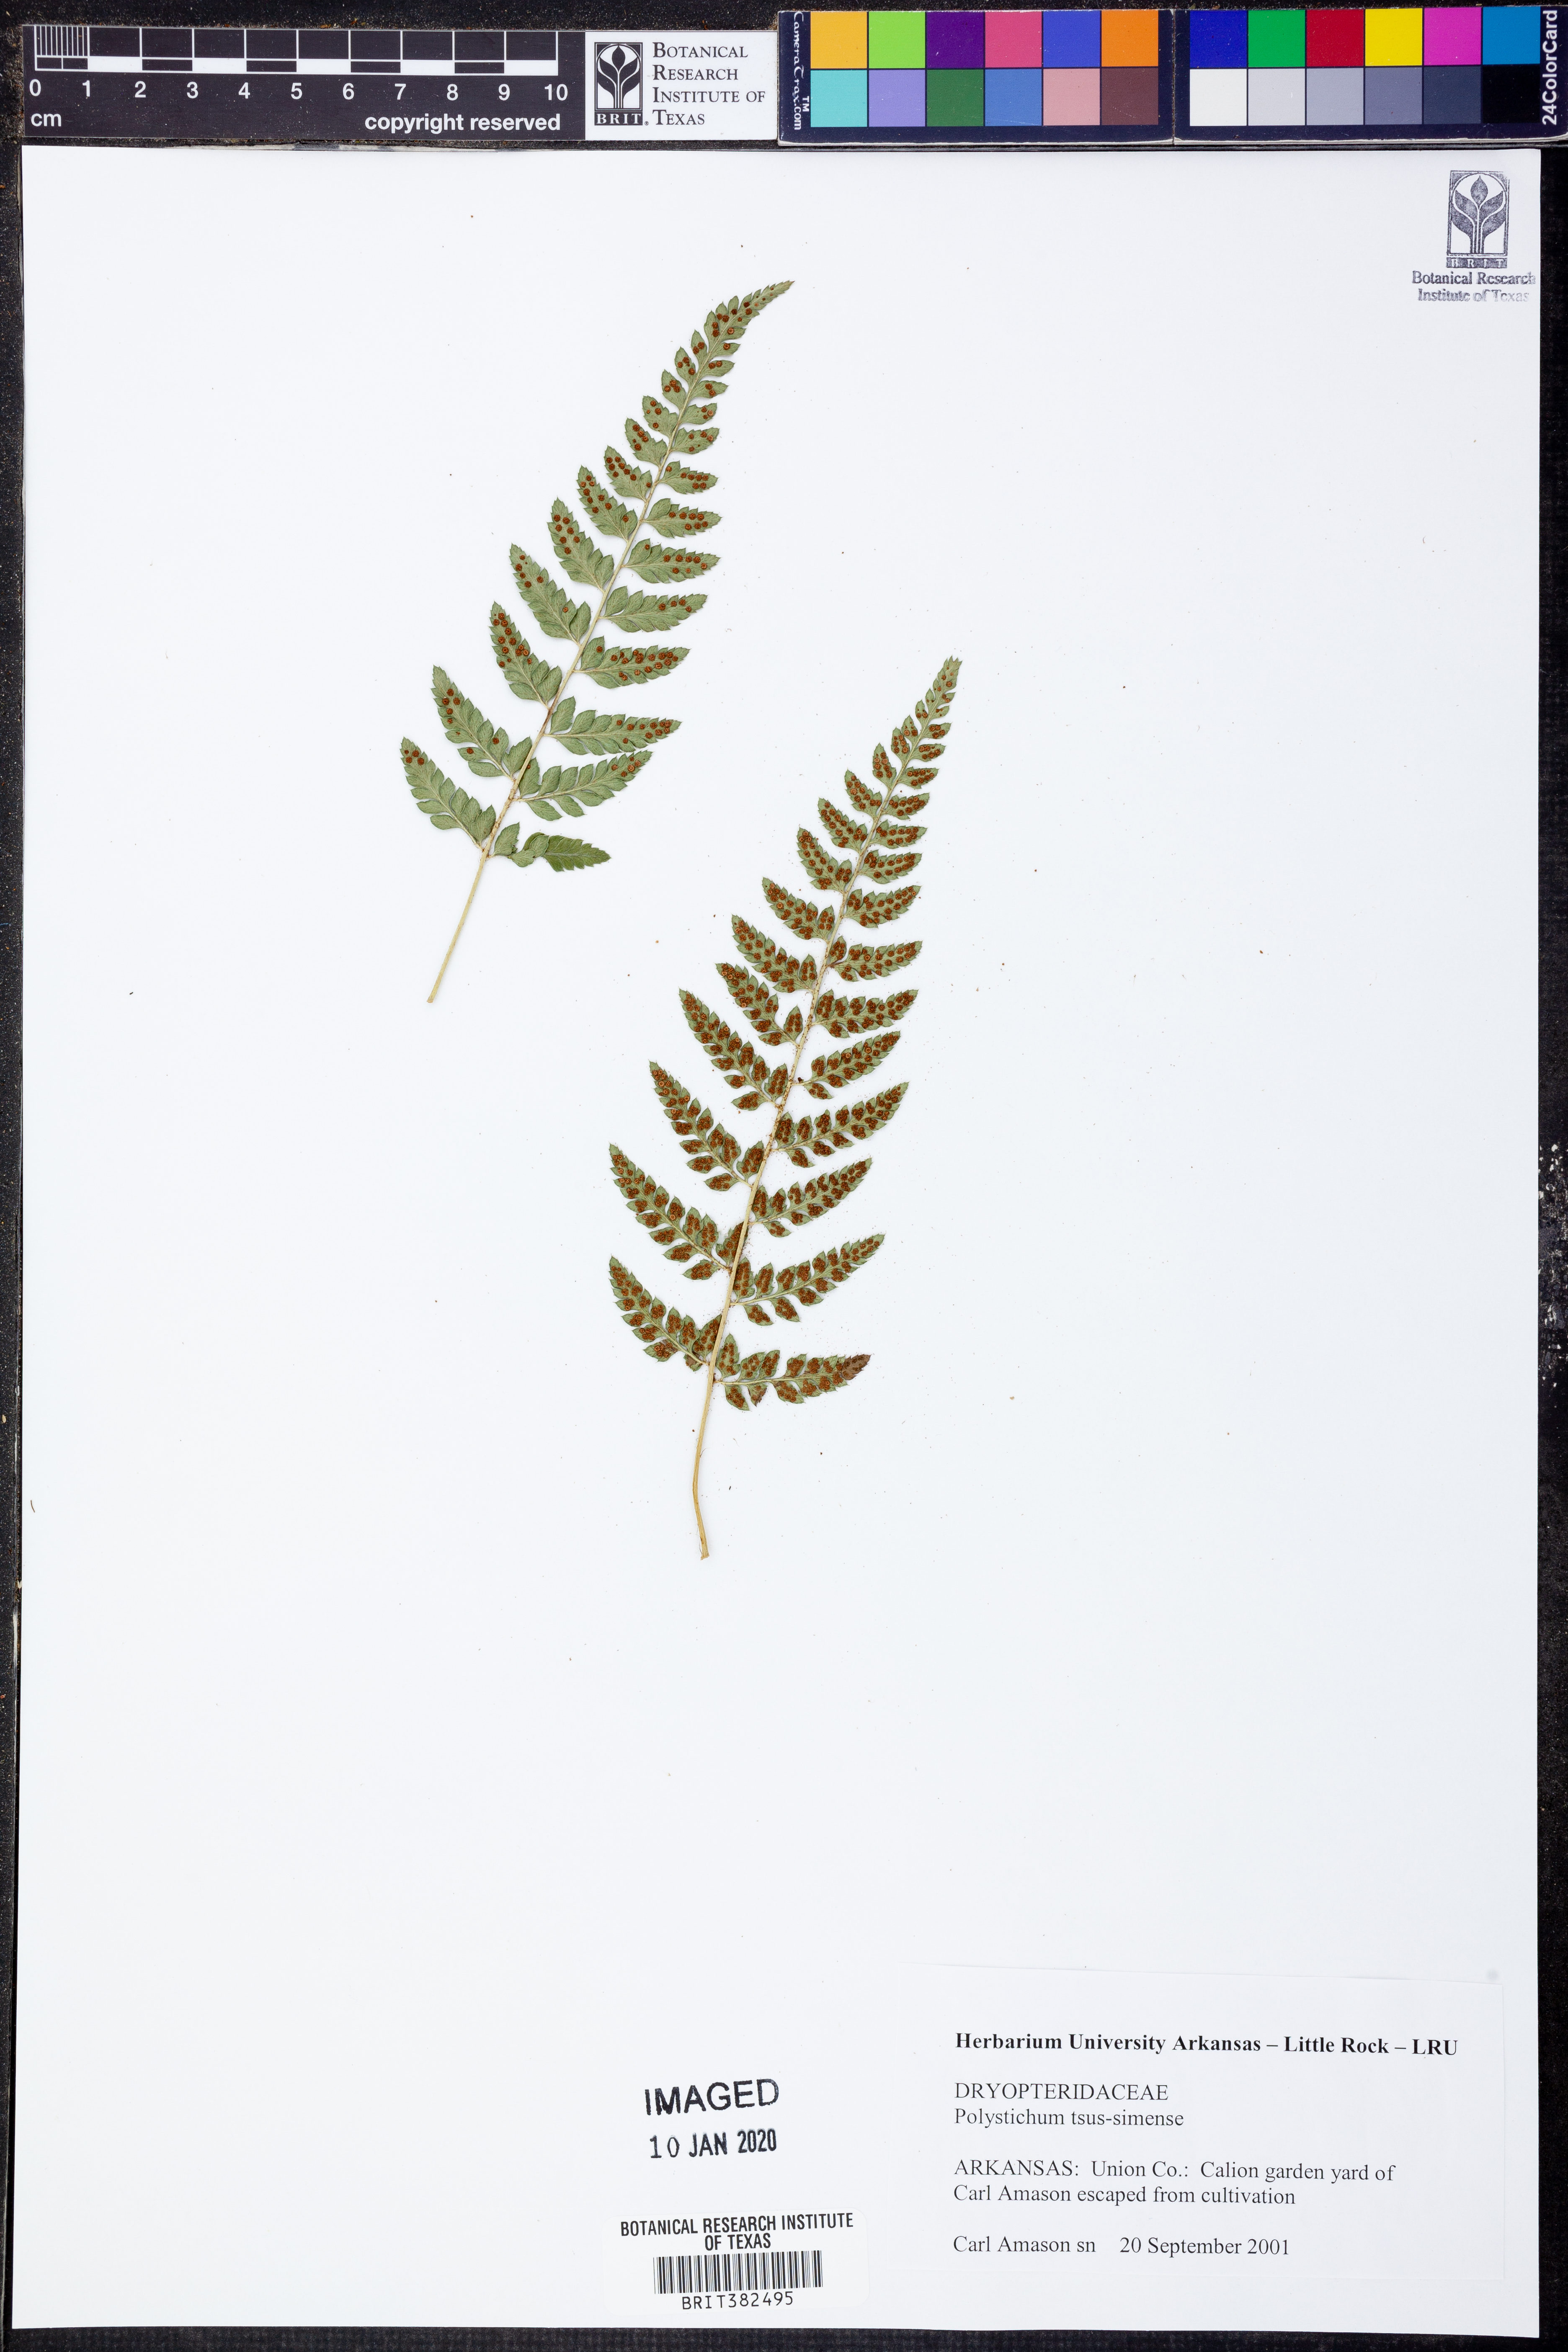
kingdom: Plantae
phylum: Tracheophyta
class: Polypodiopsida
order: Polypodiales
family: Dryopteridaceae
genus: Polystichum
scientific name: Polystichum luctuosum
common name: Korean rockfern
